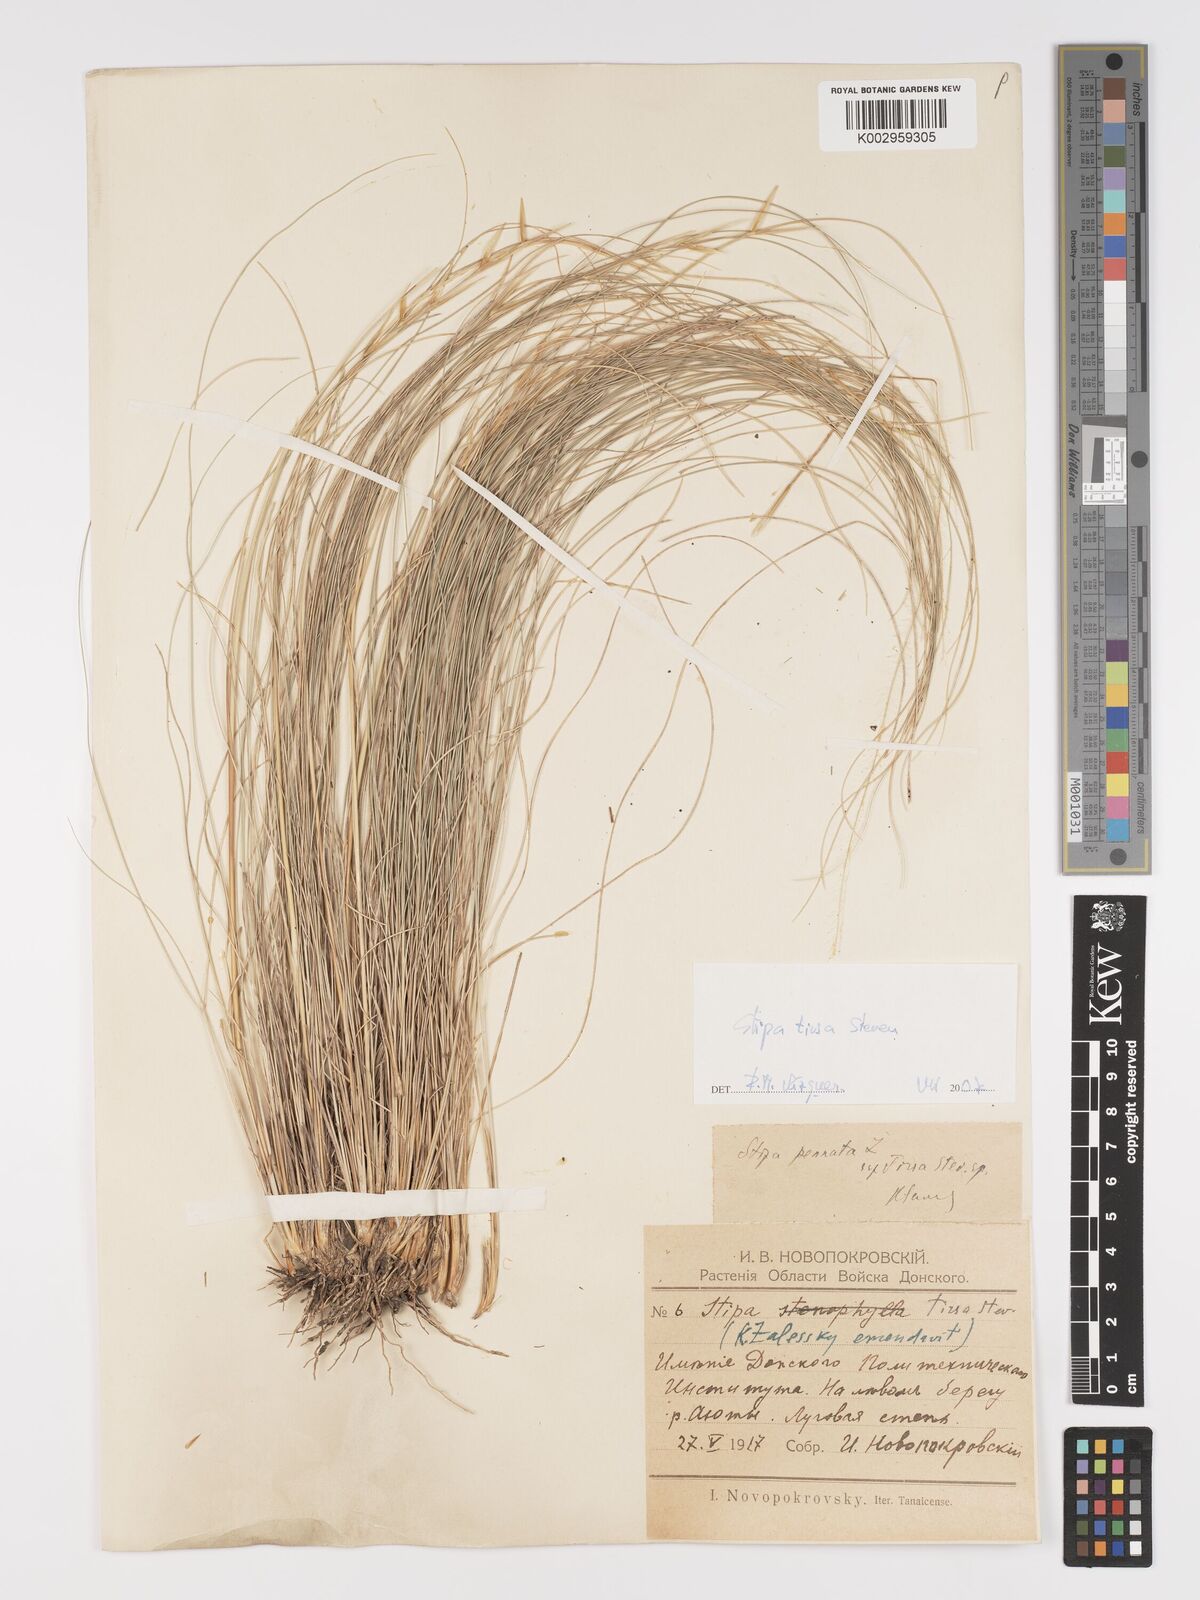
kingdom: Plantae
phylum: Tracheophyta
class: Liliopsida
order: Poales
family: Poaceae
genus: Stipa
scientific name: Stipa tirsa
